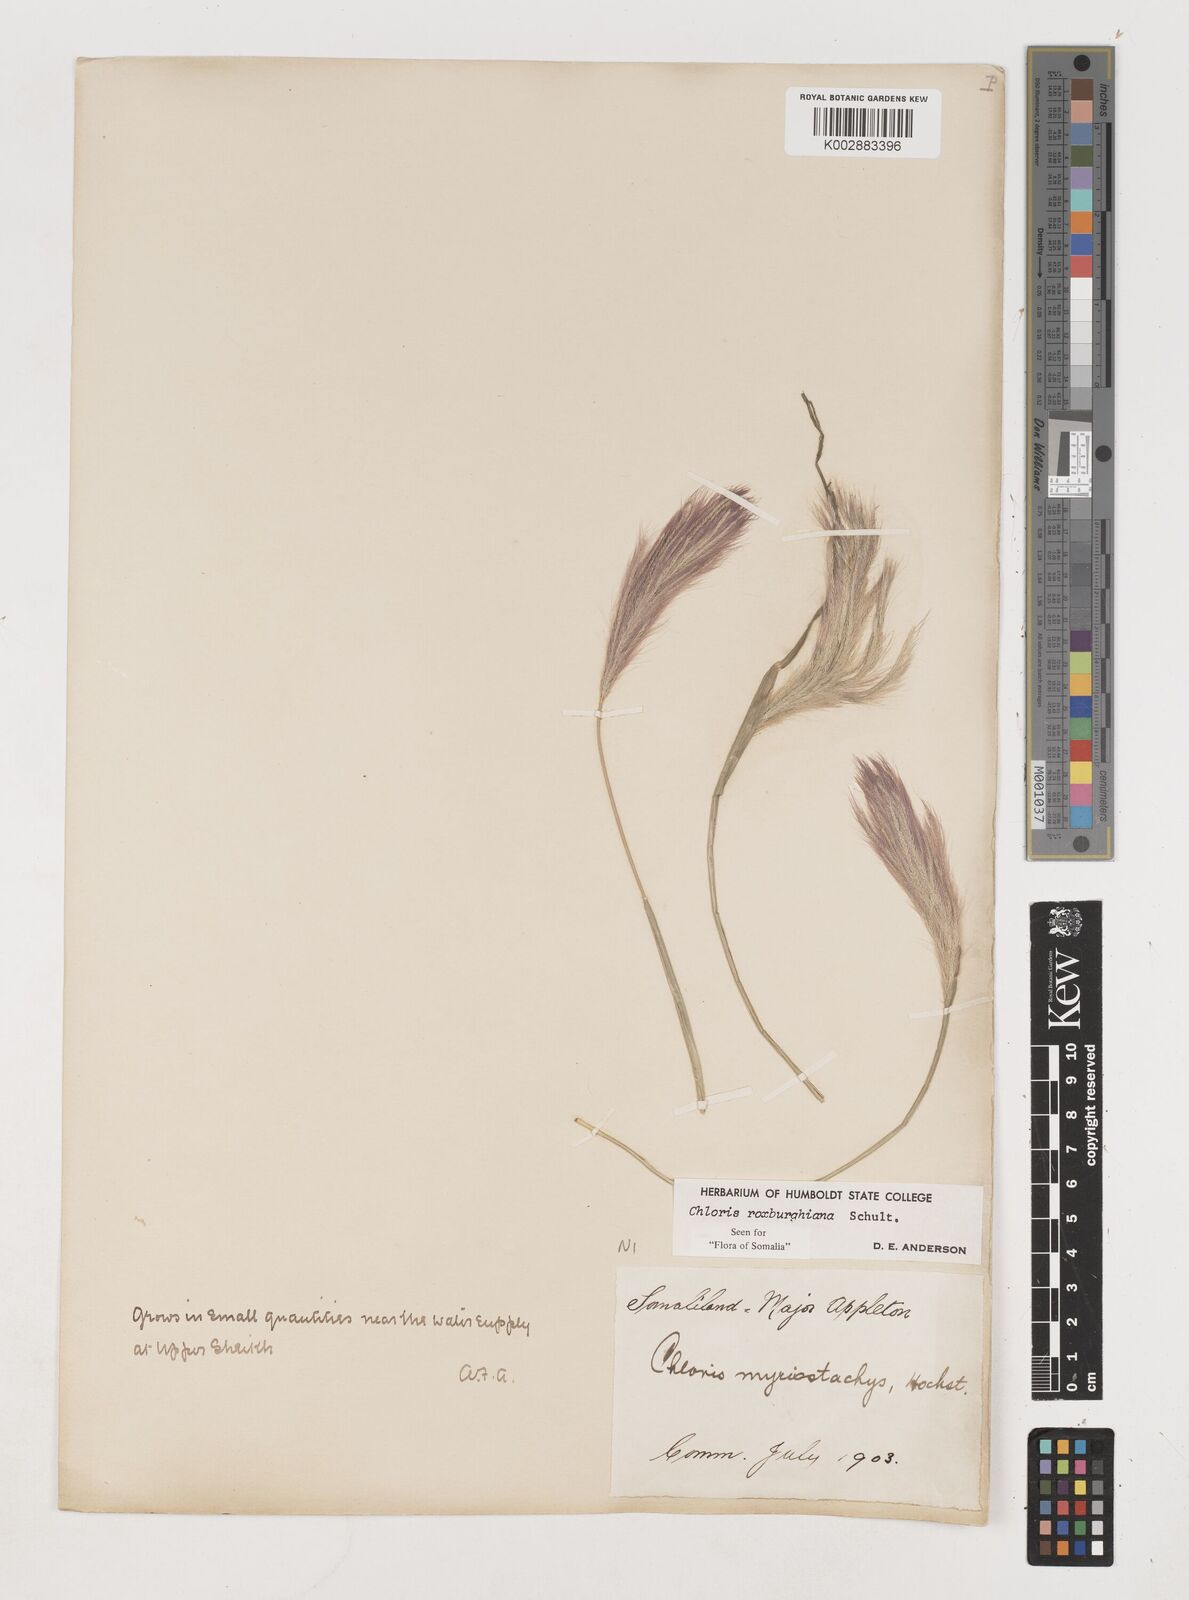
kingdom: Plantae
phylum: Tracheophyta
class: Liliopsida
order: Poales
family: Poaceae
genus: Tetrapogon
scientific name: Tetrapogon roxburghiana
